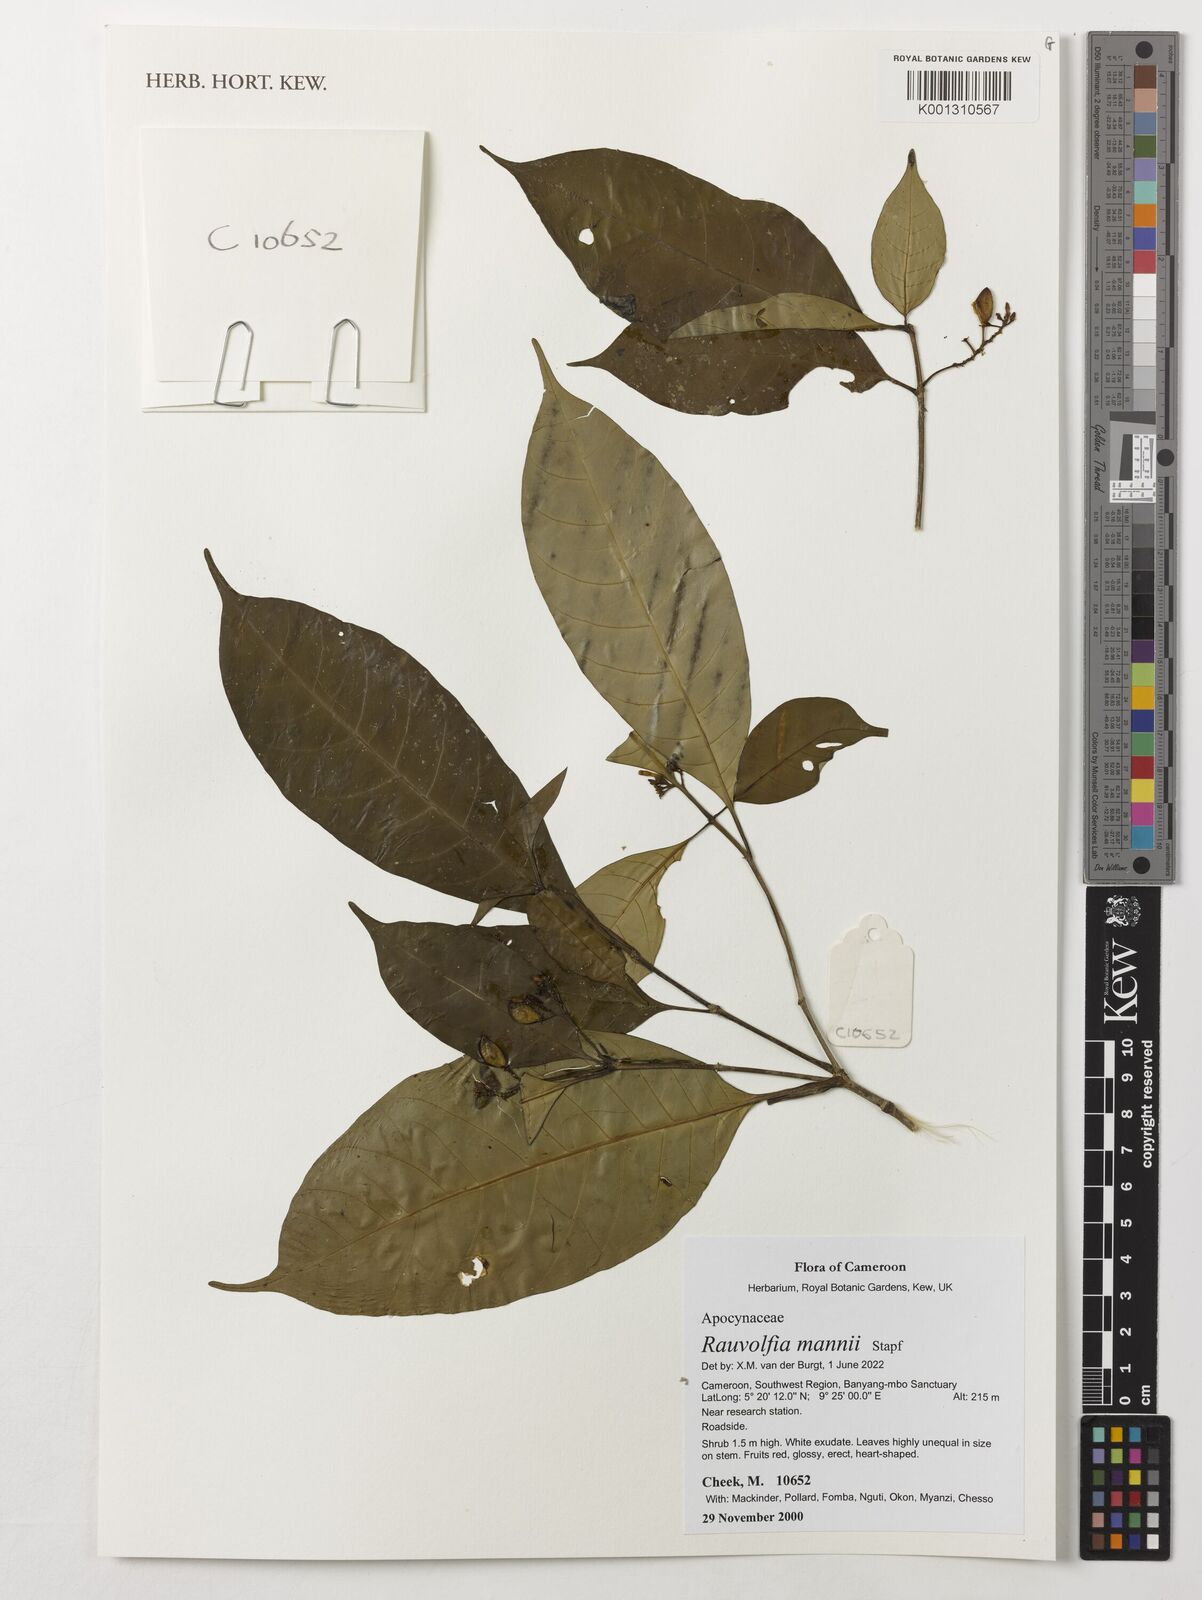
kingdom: Plantae
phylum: Tracheophyta
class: Magnoliopsida
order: Gentianales
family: Apocynaceae
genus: Rauvolfia
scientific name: Rauvolfia mannii
